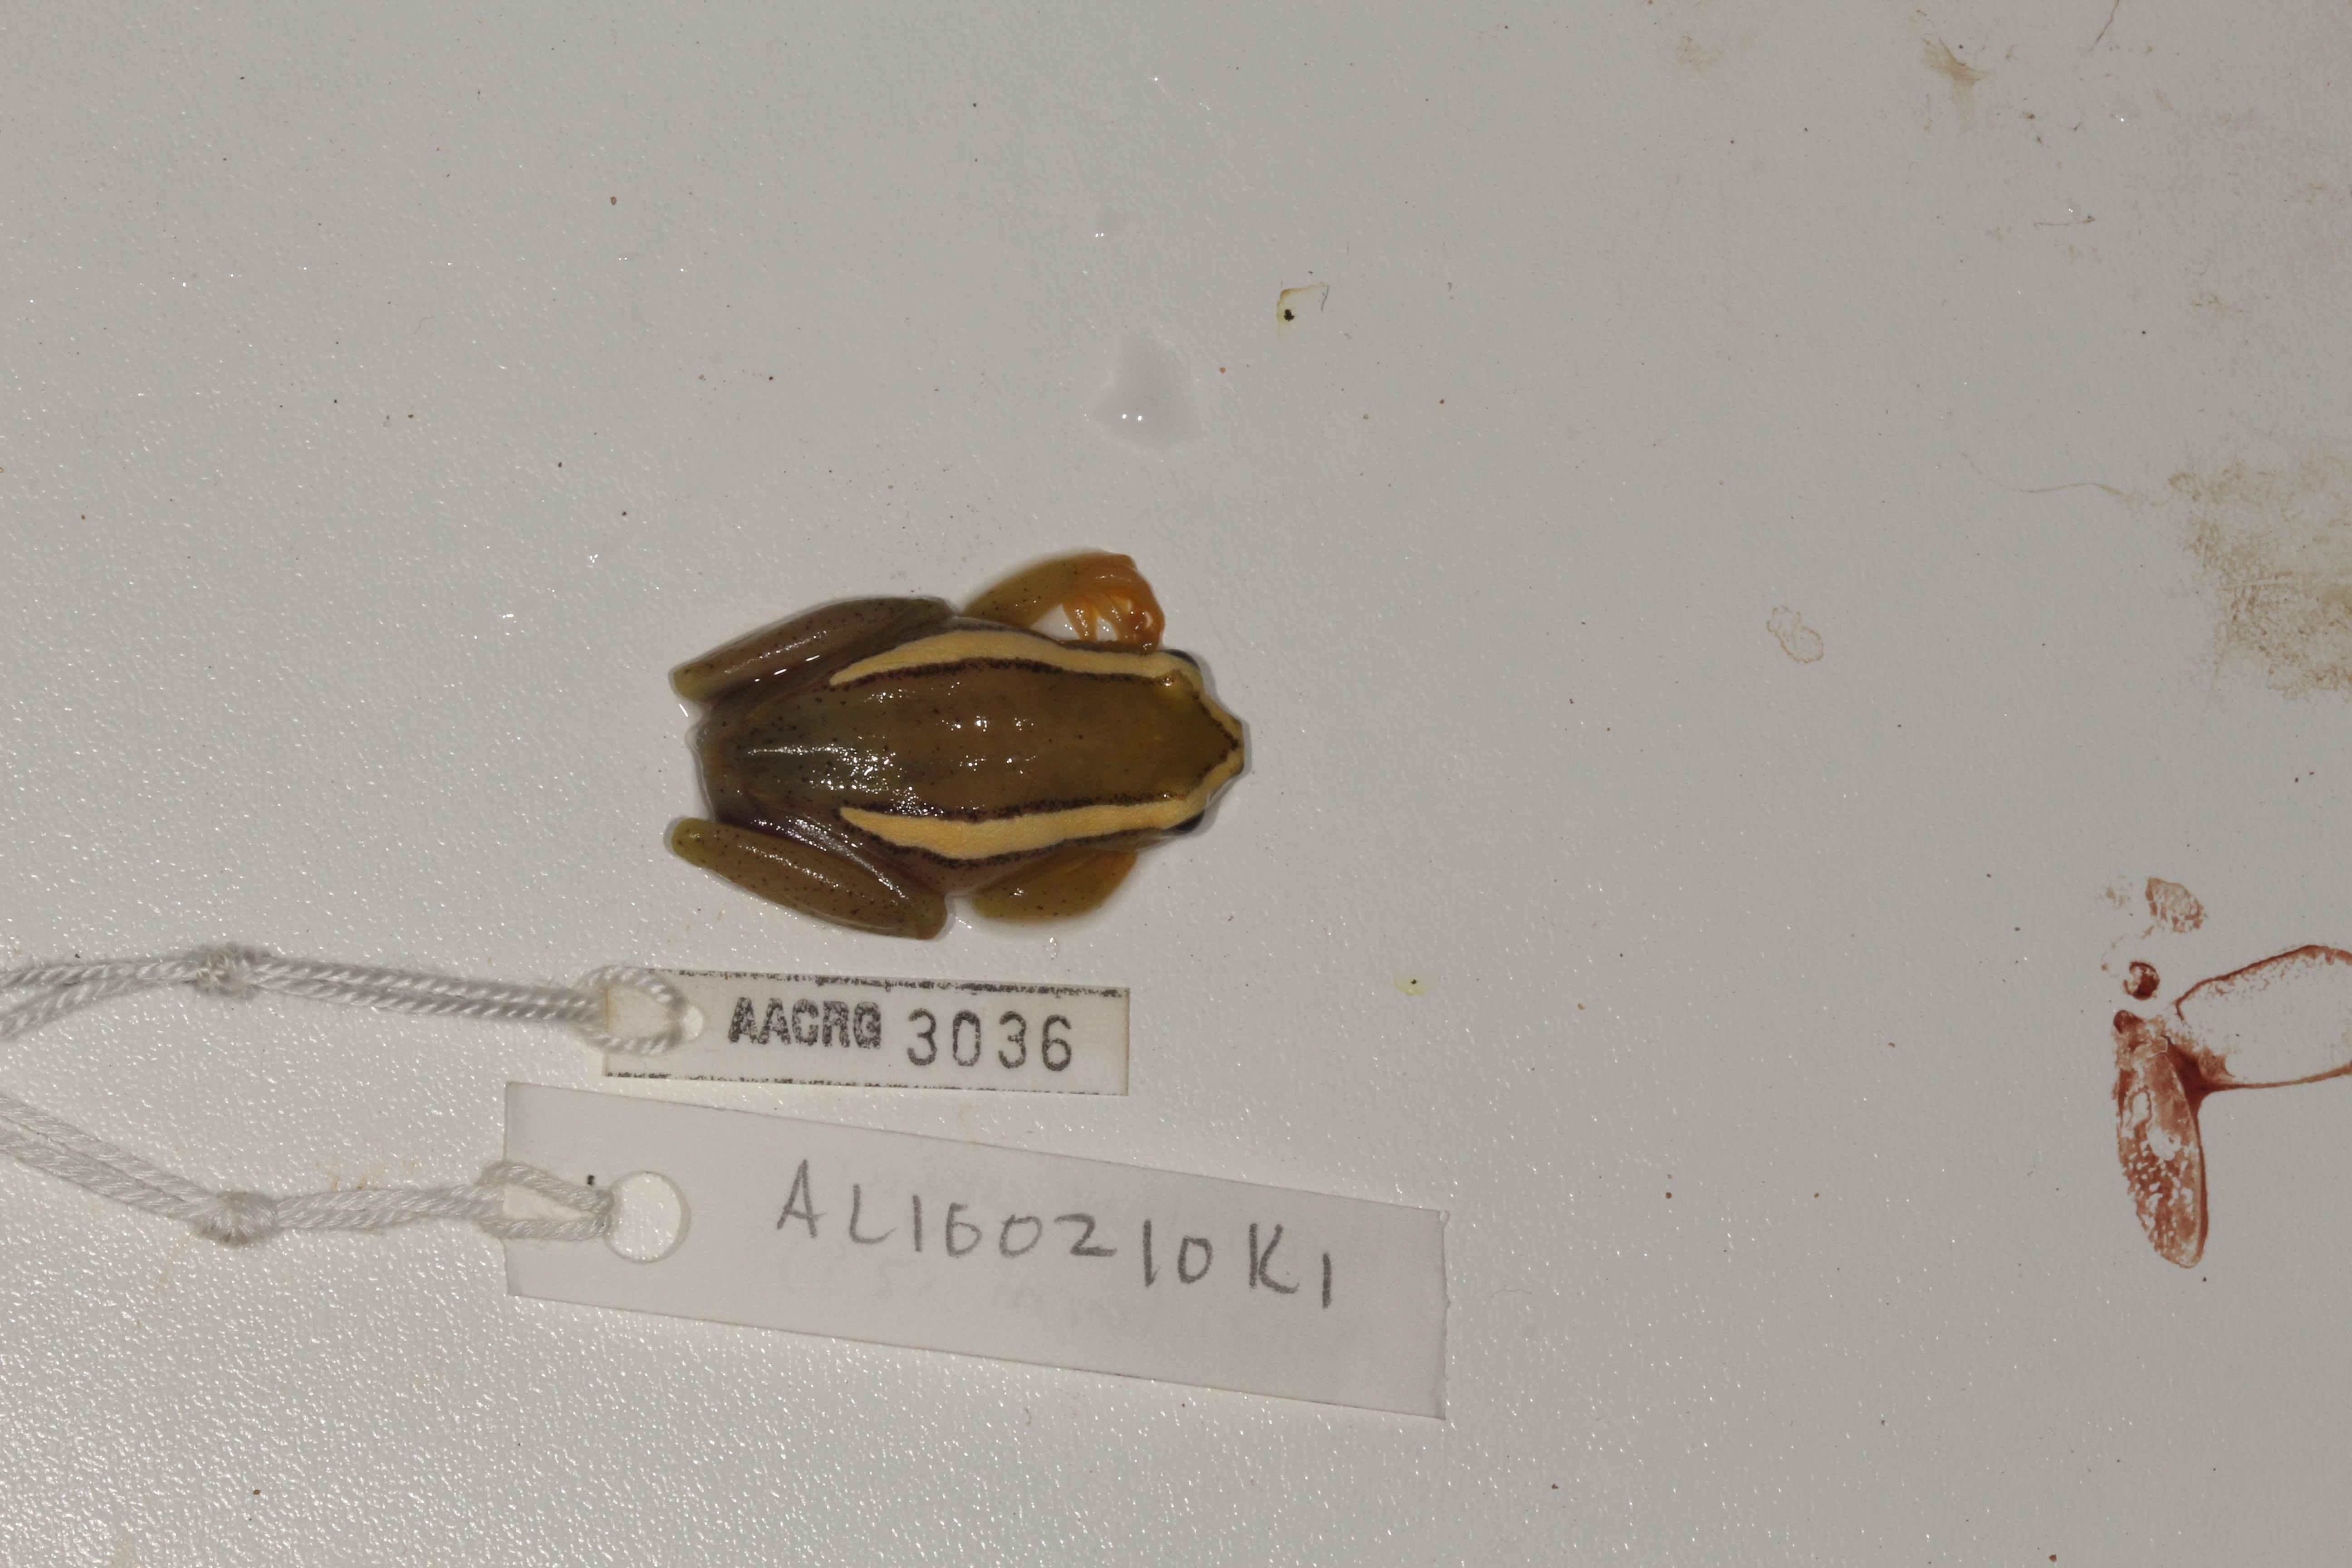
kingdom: Animalia
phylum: Chordata
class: Amphibia
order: Anura
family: Hyperoliidae
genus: Hyperolius
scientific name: Hyperolius argus
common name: Argus reed frog
